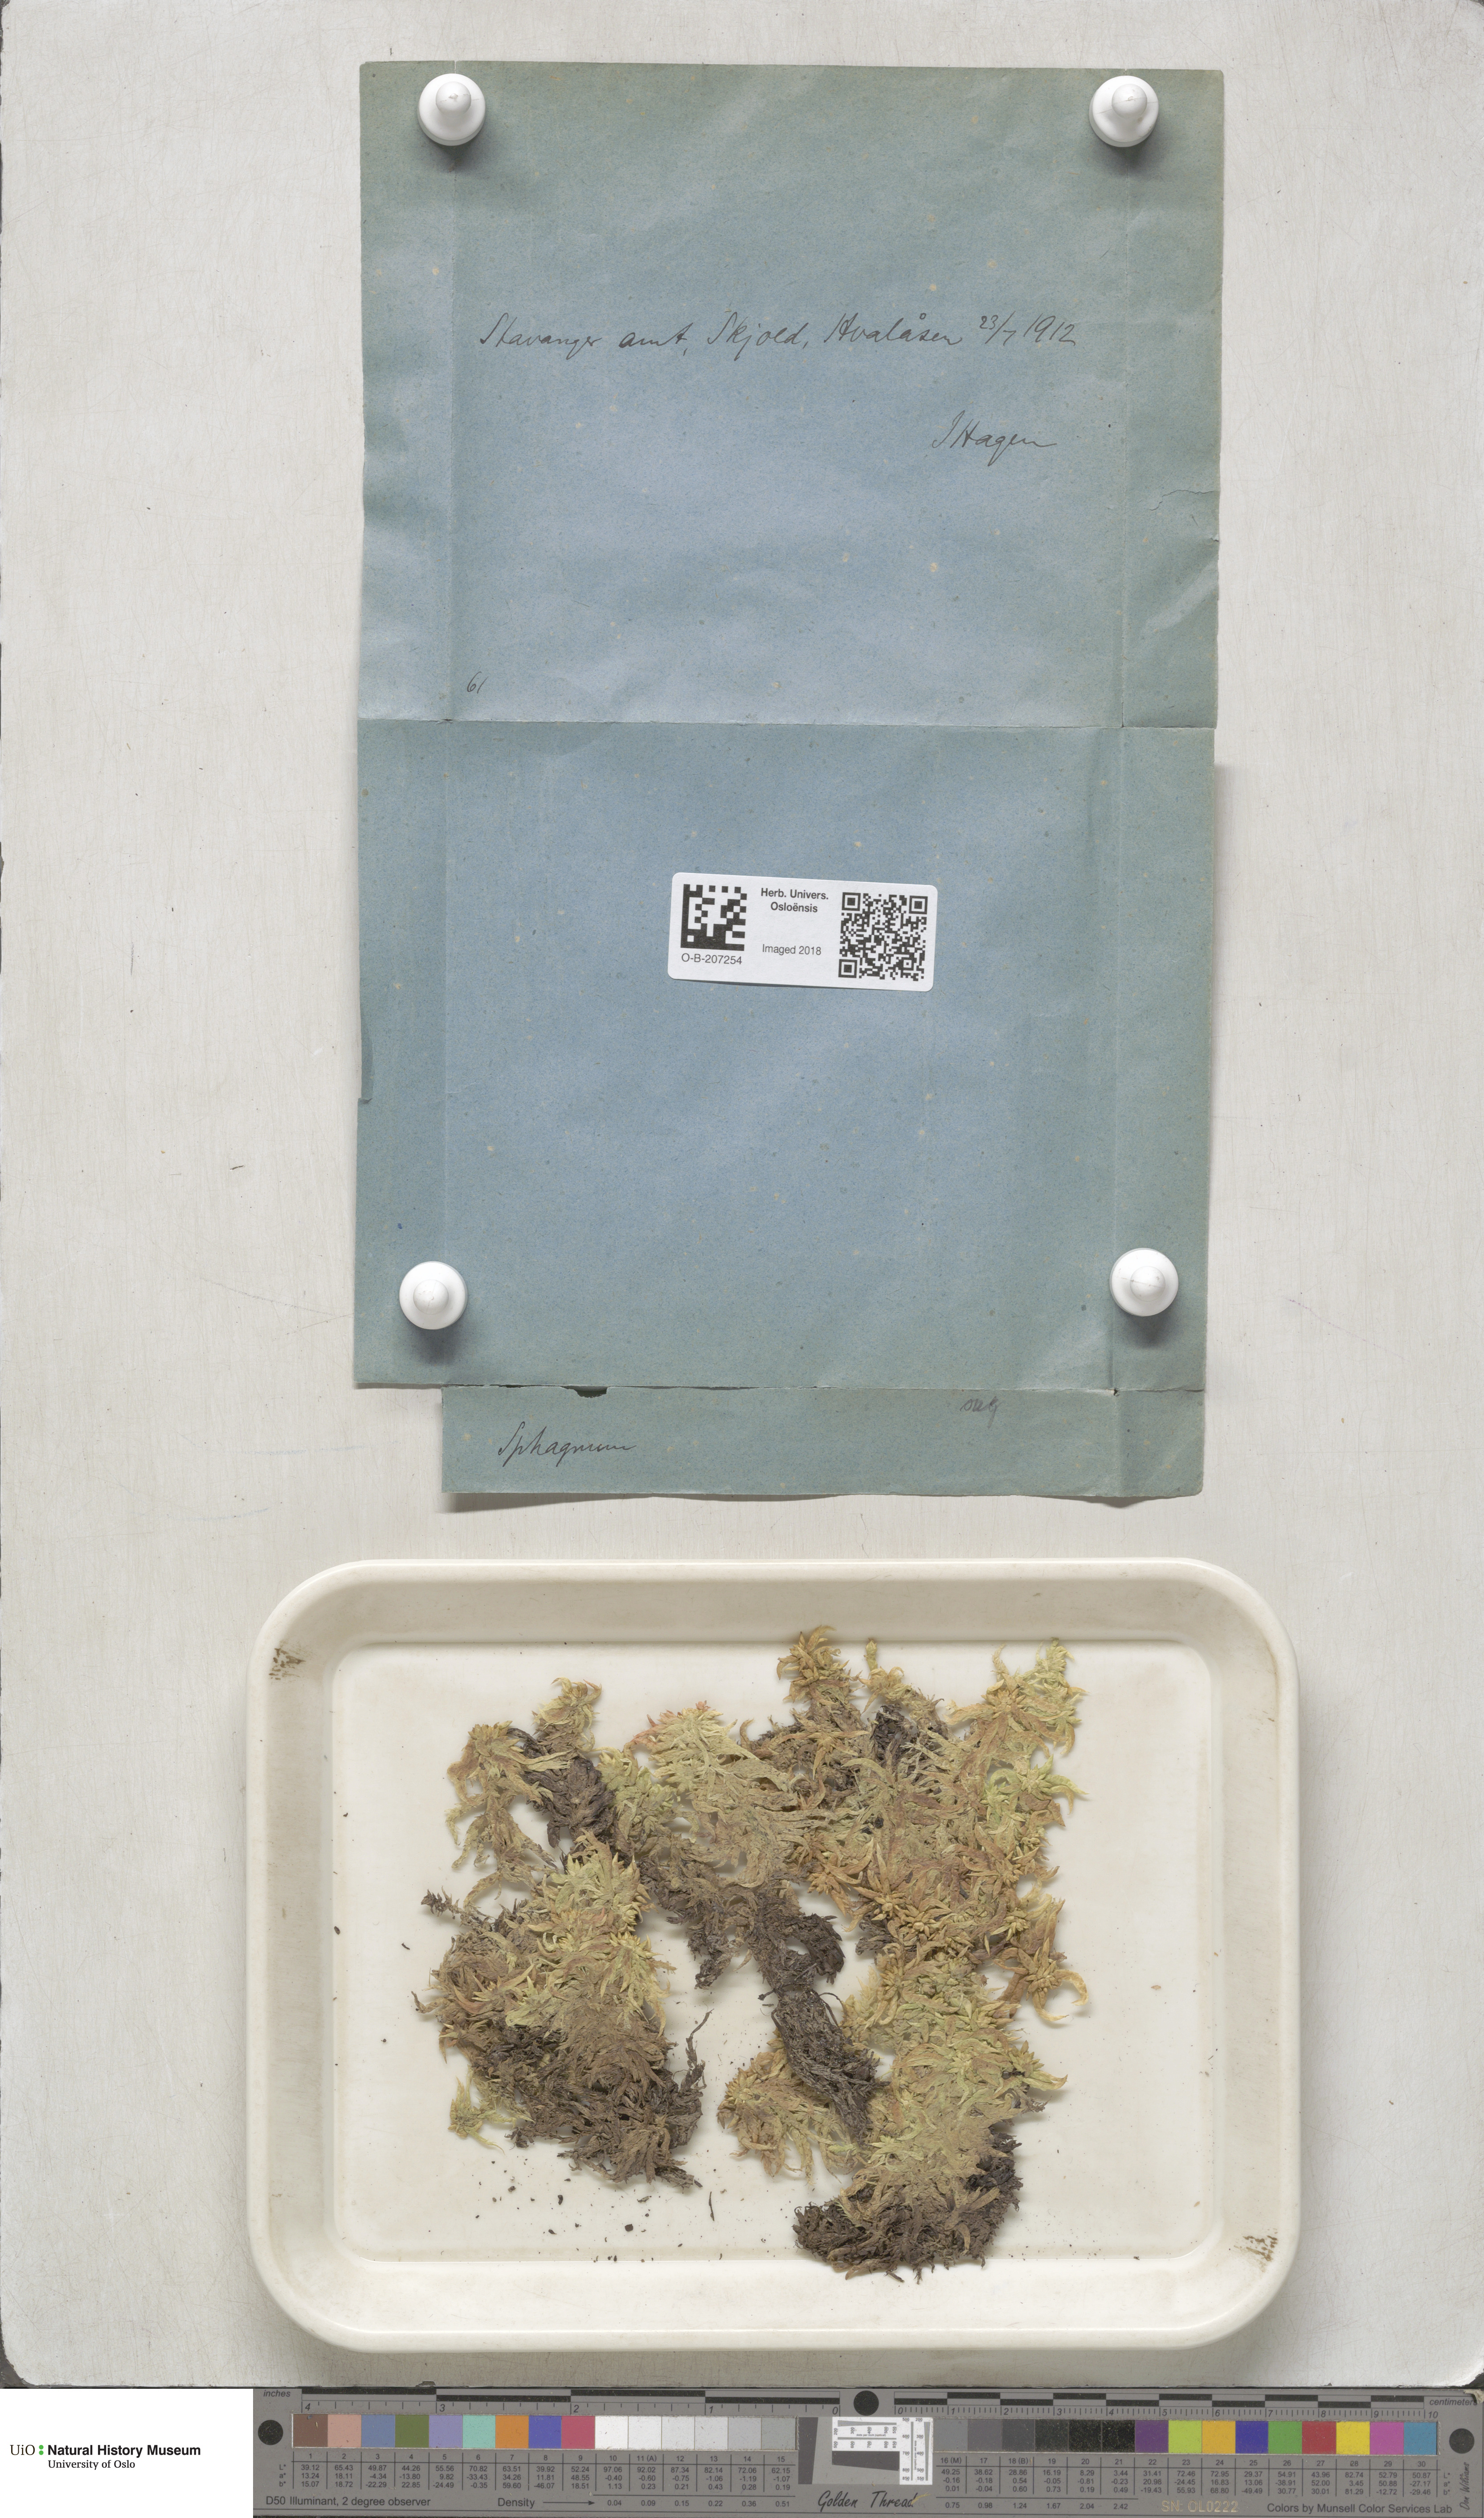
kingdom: Plantae
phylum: Bryophyta
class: Sphagnopsida
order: Sphagnales
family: Sphagnaceae
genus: Sphagnum
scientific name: Sphagnum subsecundum
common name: Orange peat moss
